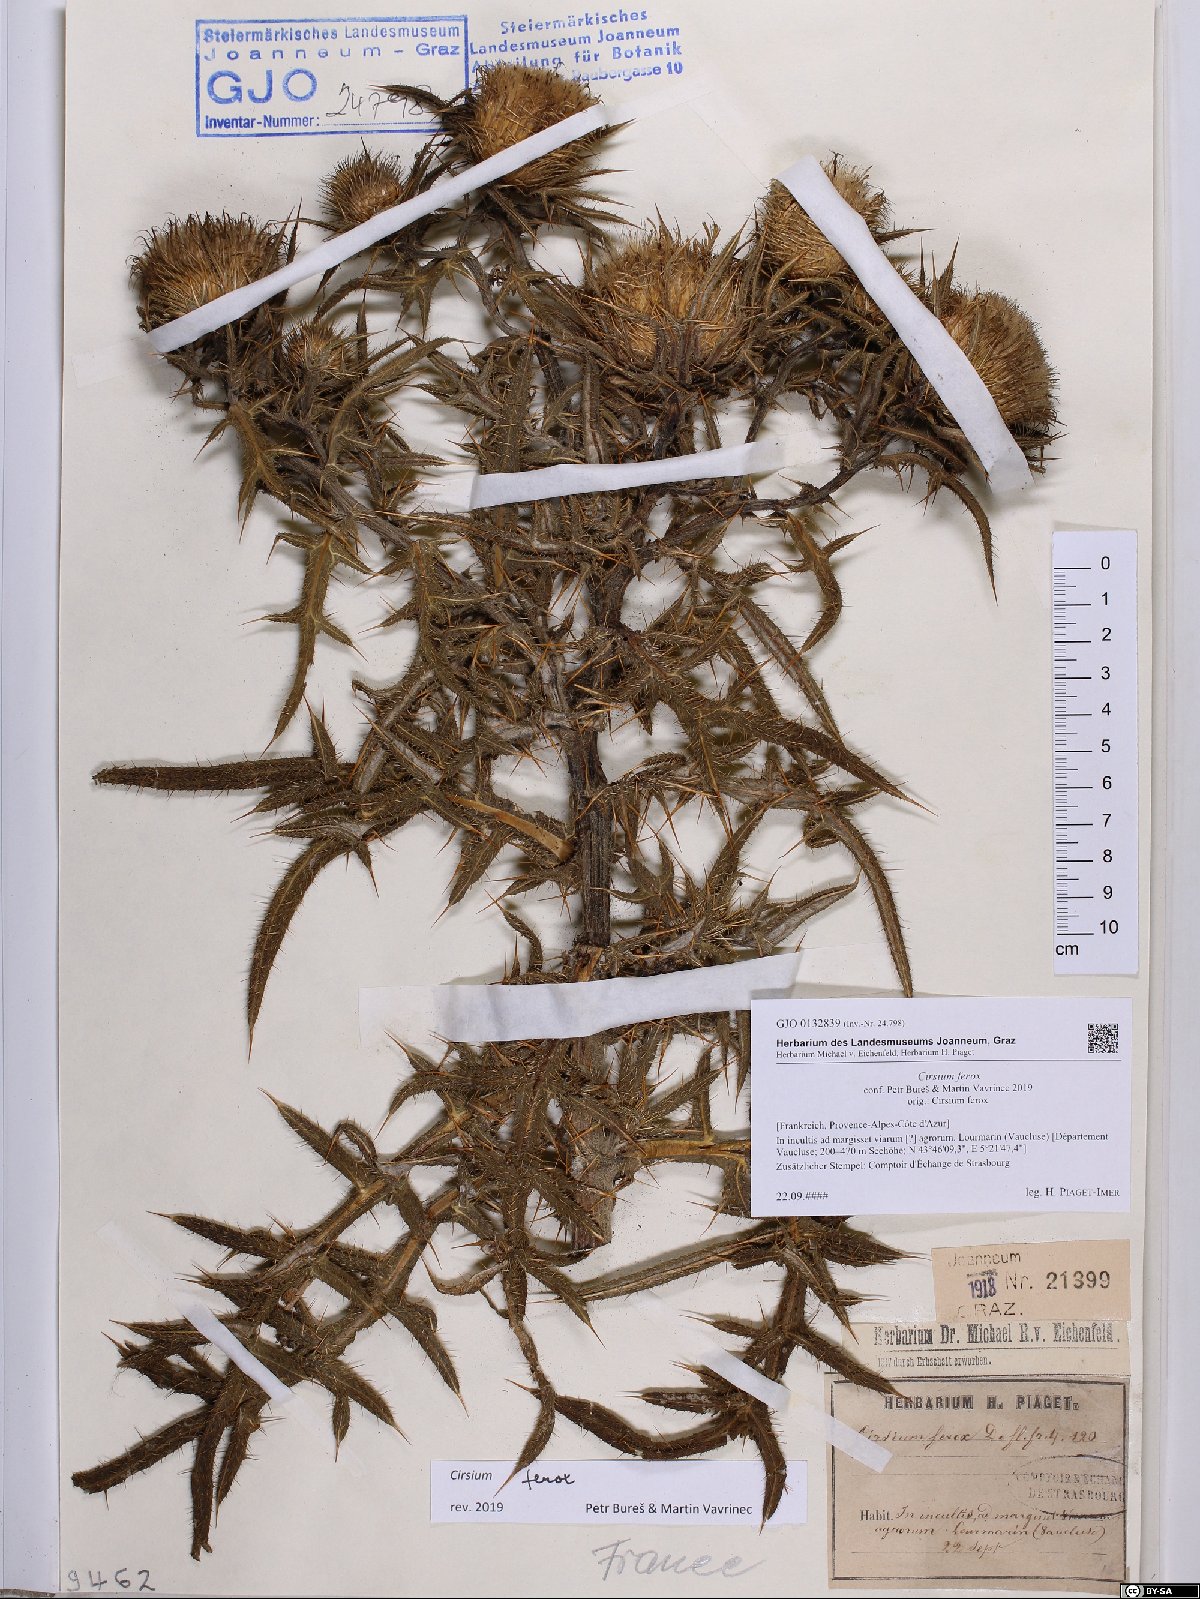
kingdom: Plantae
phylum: Tracheophyta
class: Magnoliopsida
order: Asterales
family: Asteraceae
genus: Lophiolepis
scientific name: Lophiolepis ferox
